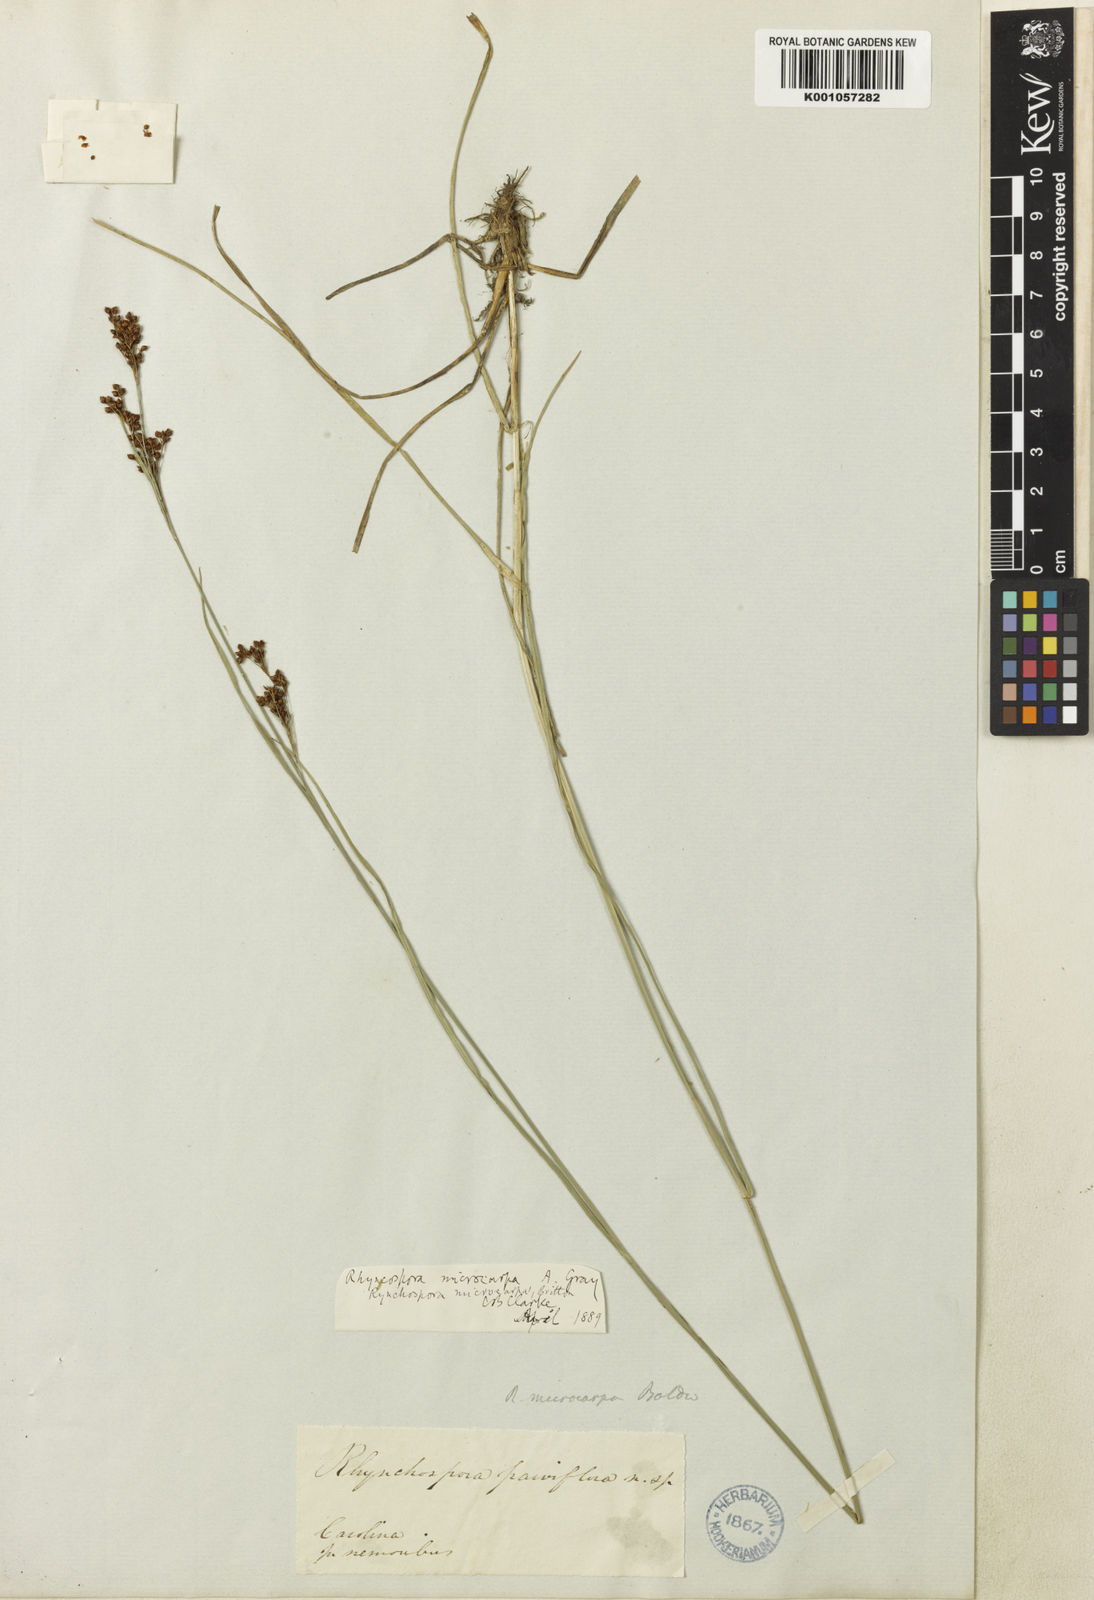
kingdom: Plantae
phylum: Tracheophyta
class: Liliopsida
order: Poales
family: Cyperaceae
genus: Rhynchospora
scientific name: Rhynchospora microcarpa
